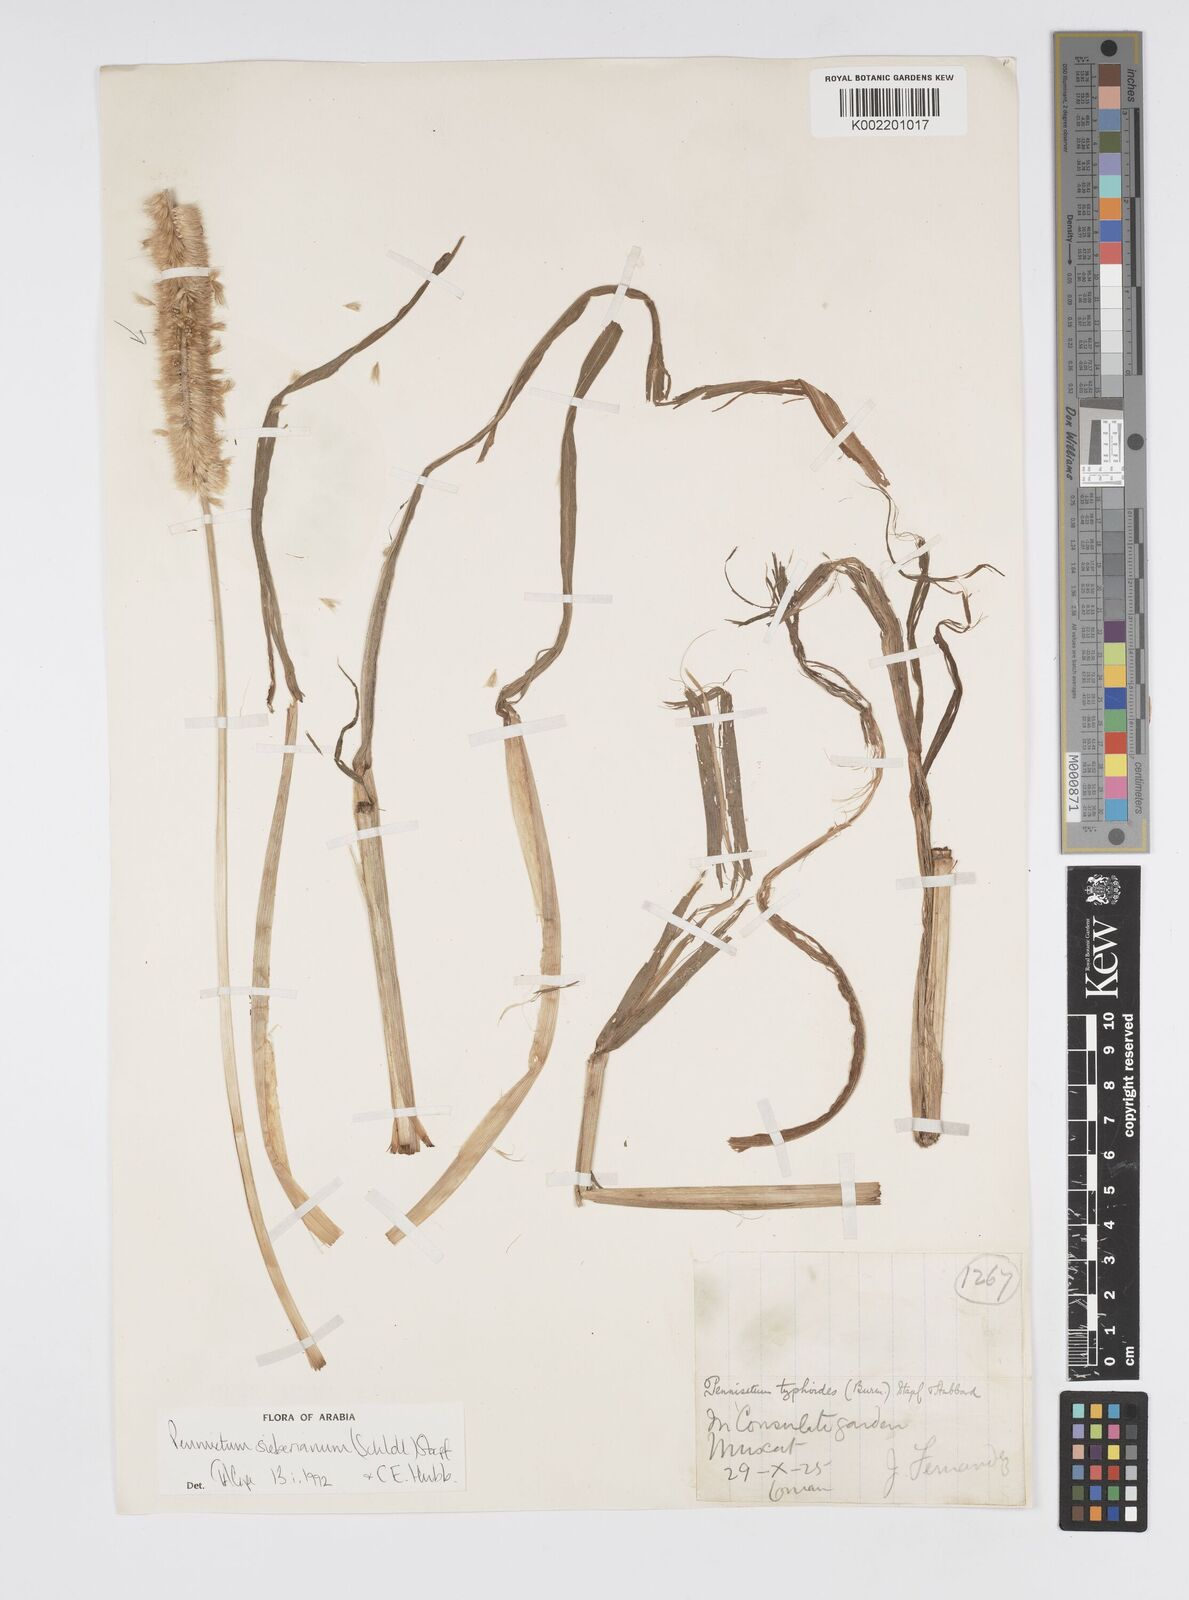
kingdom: Plantae
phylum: Tracheophyta
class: Liliopsida
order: Poales
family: Poaceae
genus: Cenchrus
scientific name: Cenchrus sieberianus
